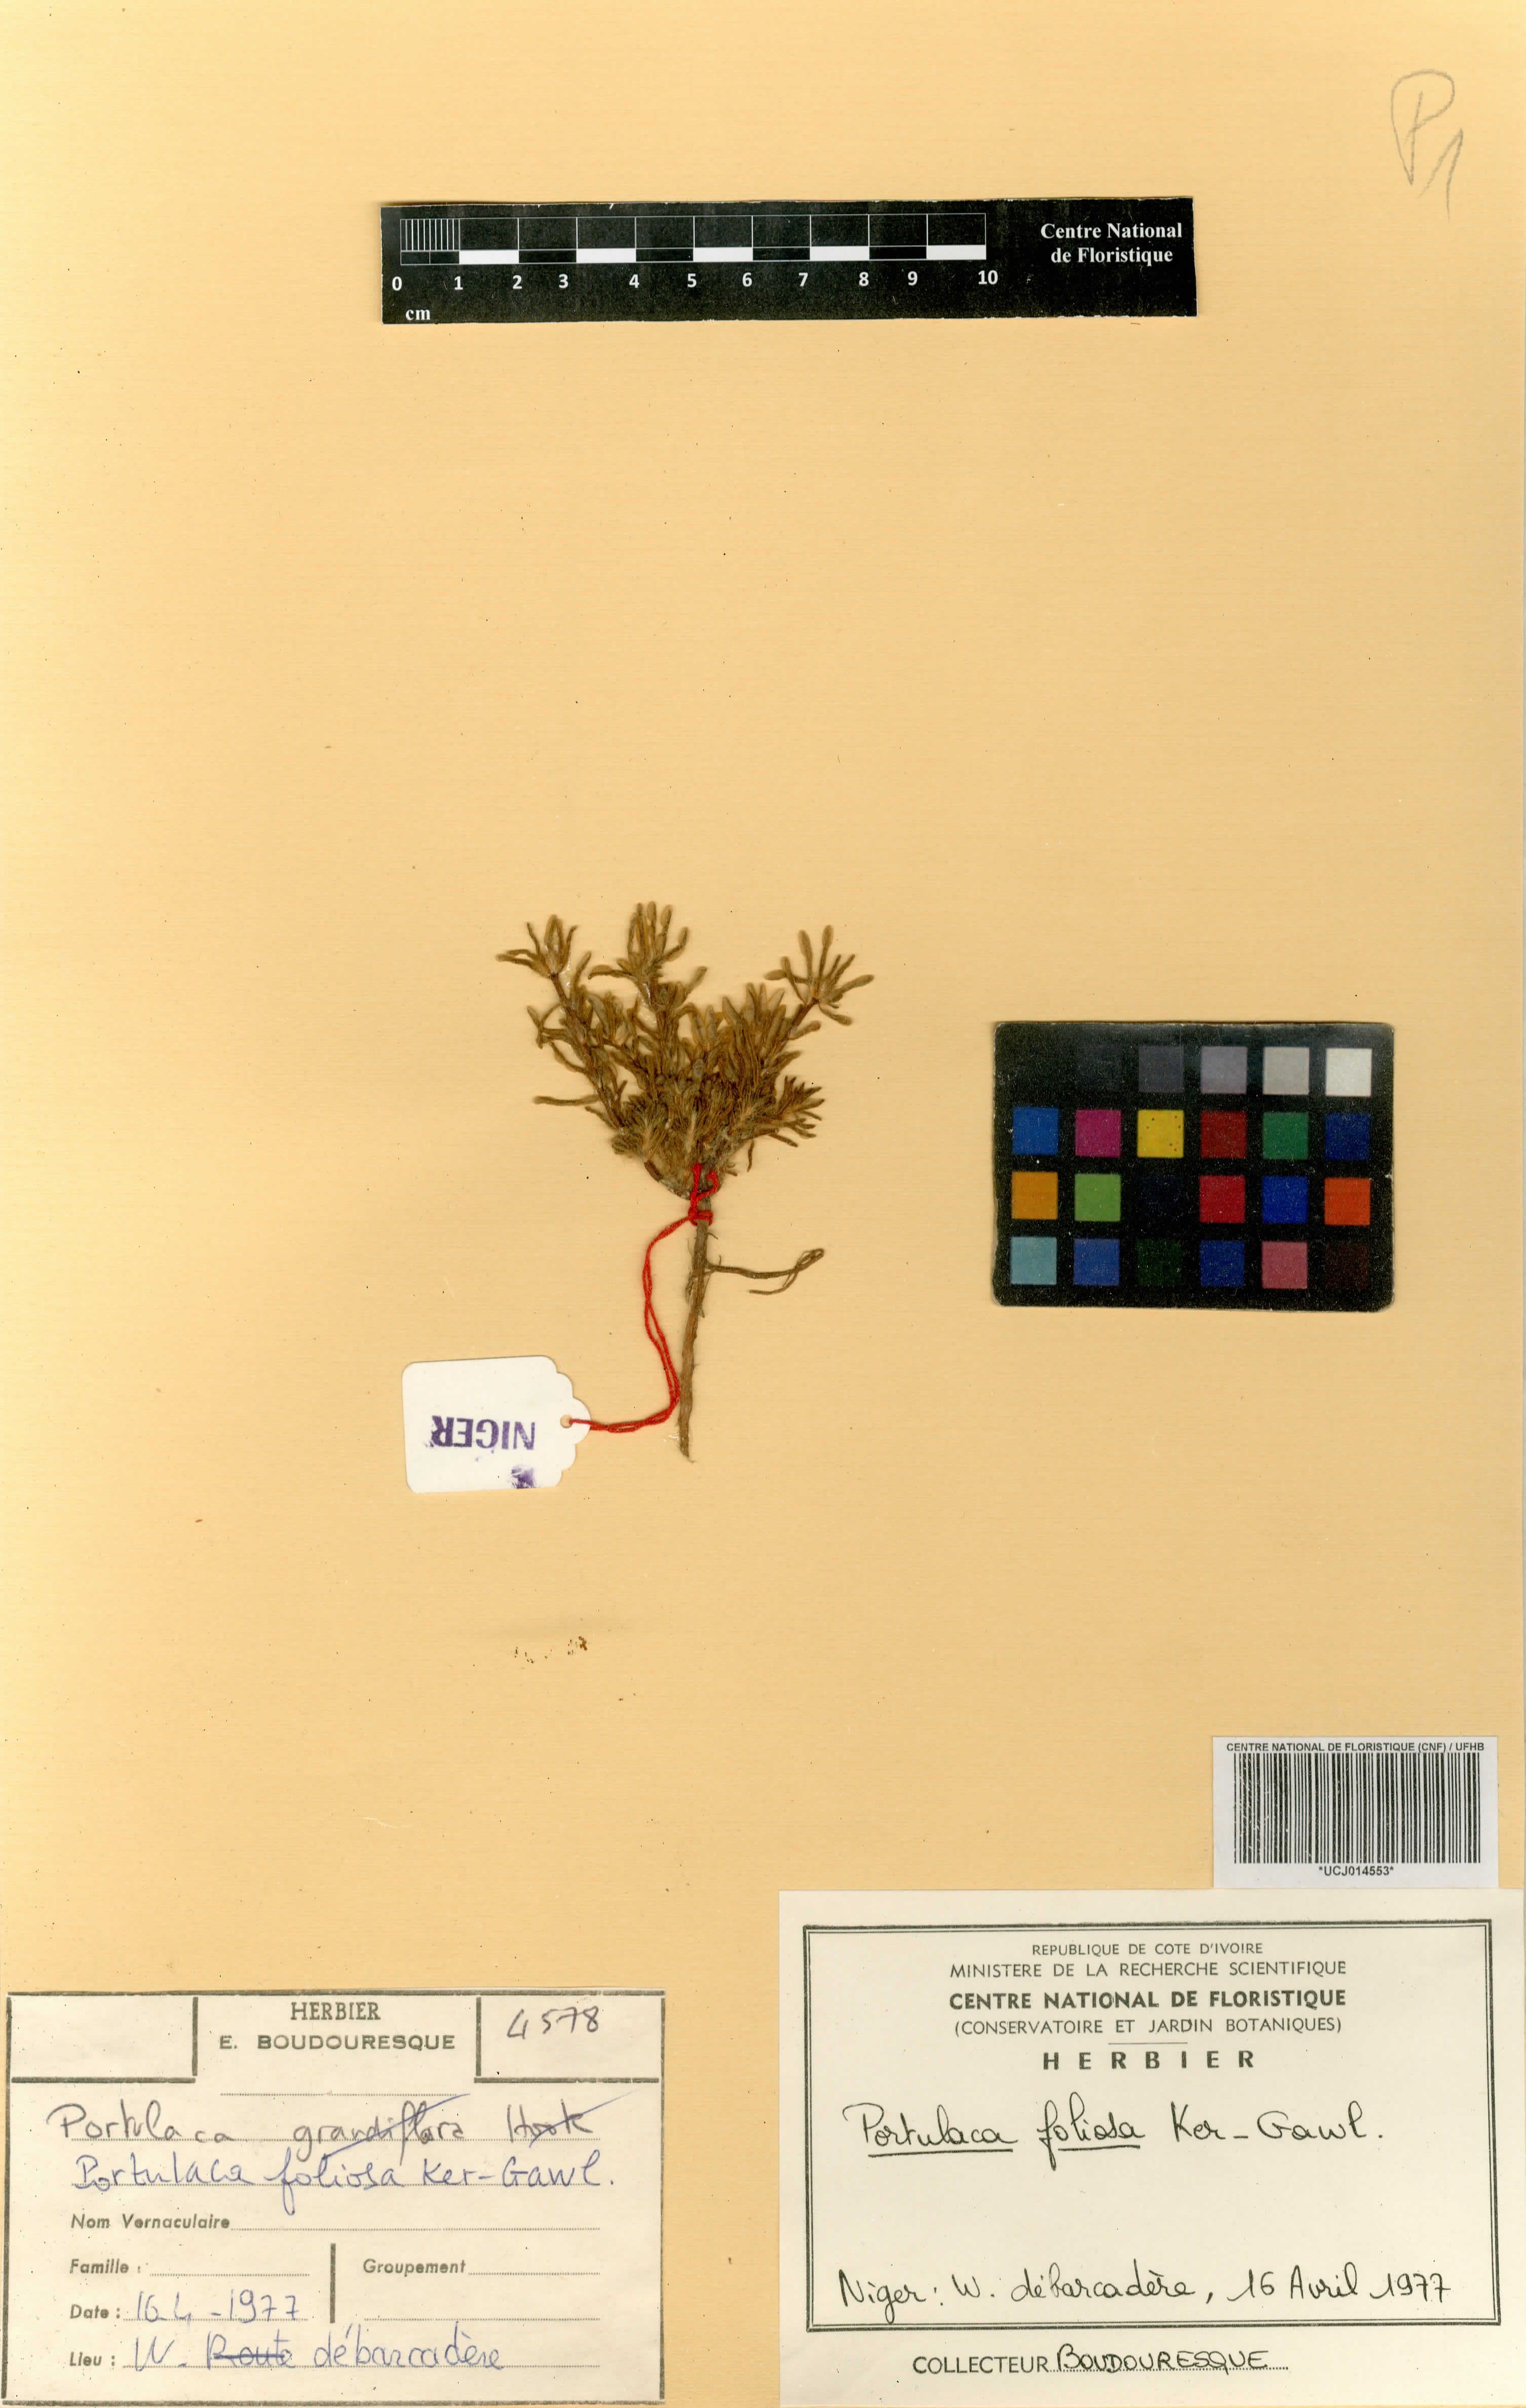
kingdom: Plantae
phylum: Tracheophyta
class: Magnoliopsida
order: Caryophyllales
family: Portulacaceae
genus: Portulaca
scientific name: Portulaca foliosa
